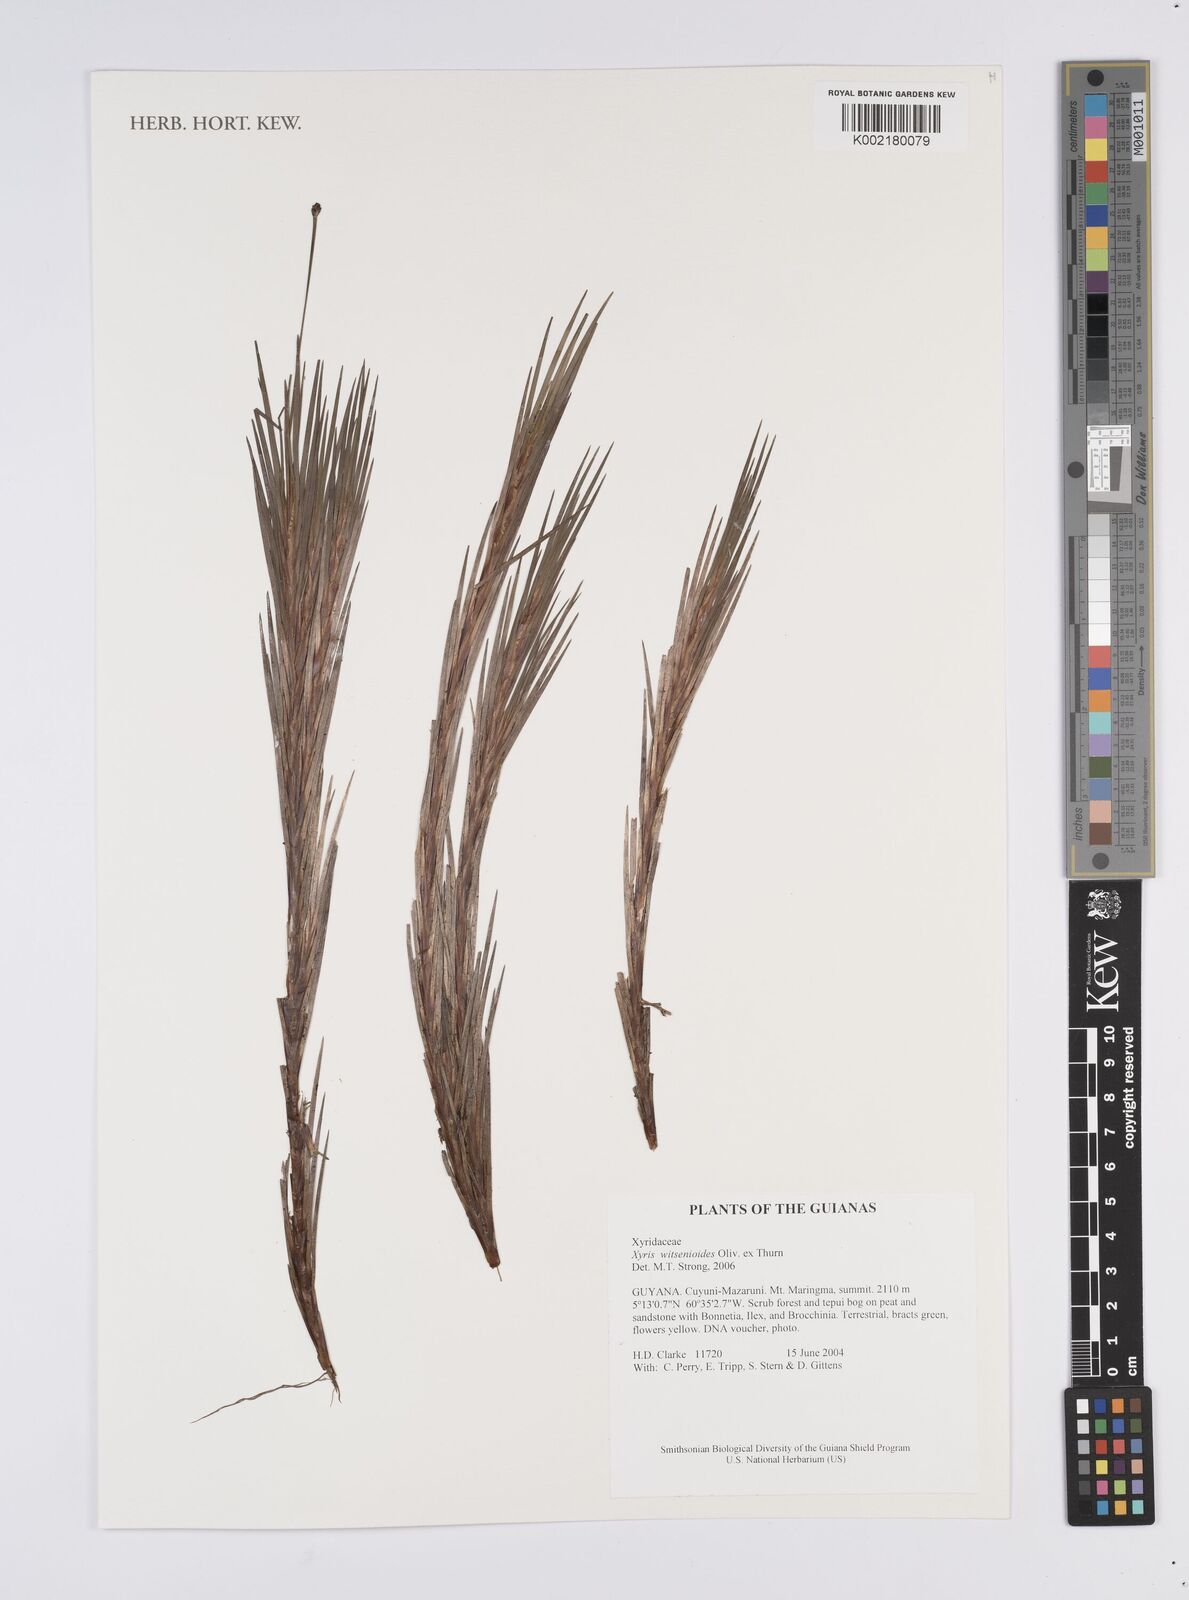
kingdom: Plantae
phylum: Tracheophyta
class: Liliopsida
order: Poales
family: Xyridaceae
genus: Xyris
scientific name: Xyris witsenioides
